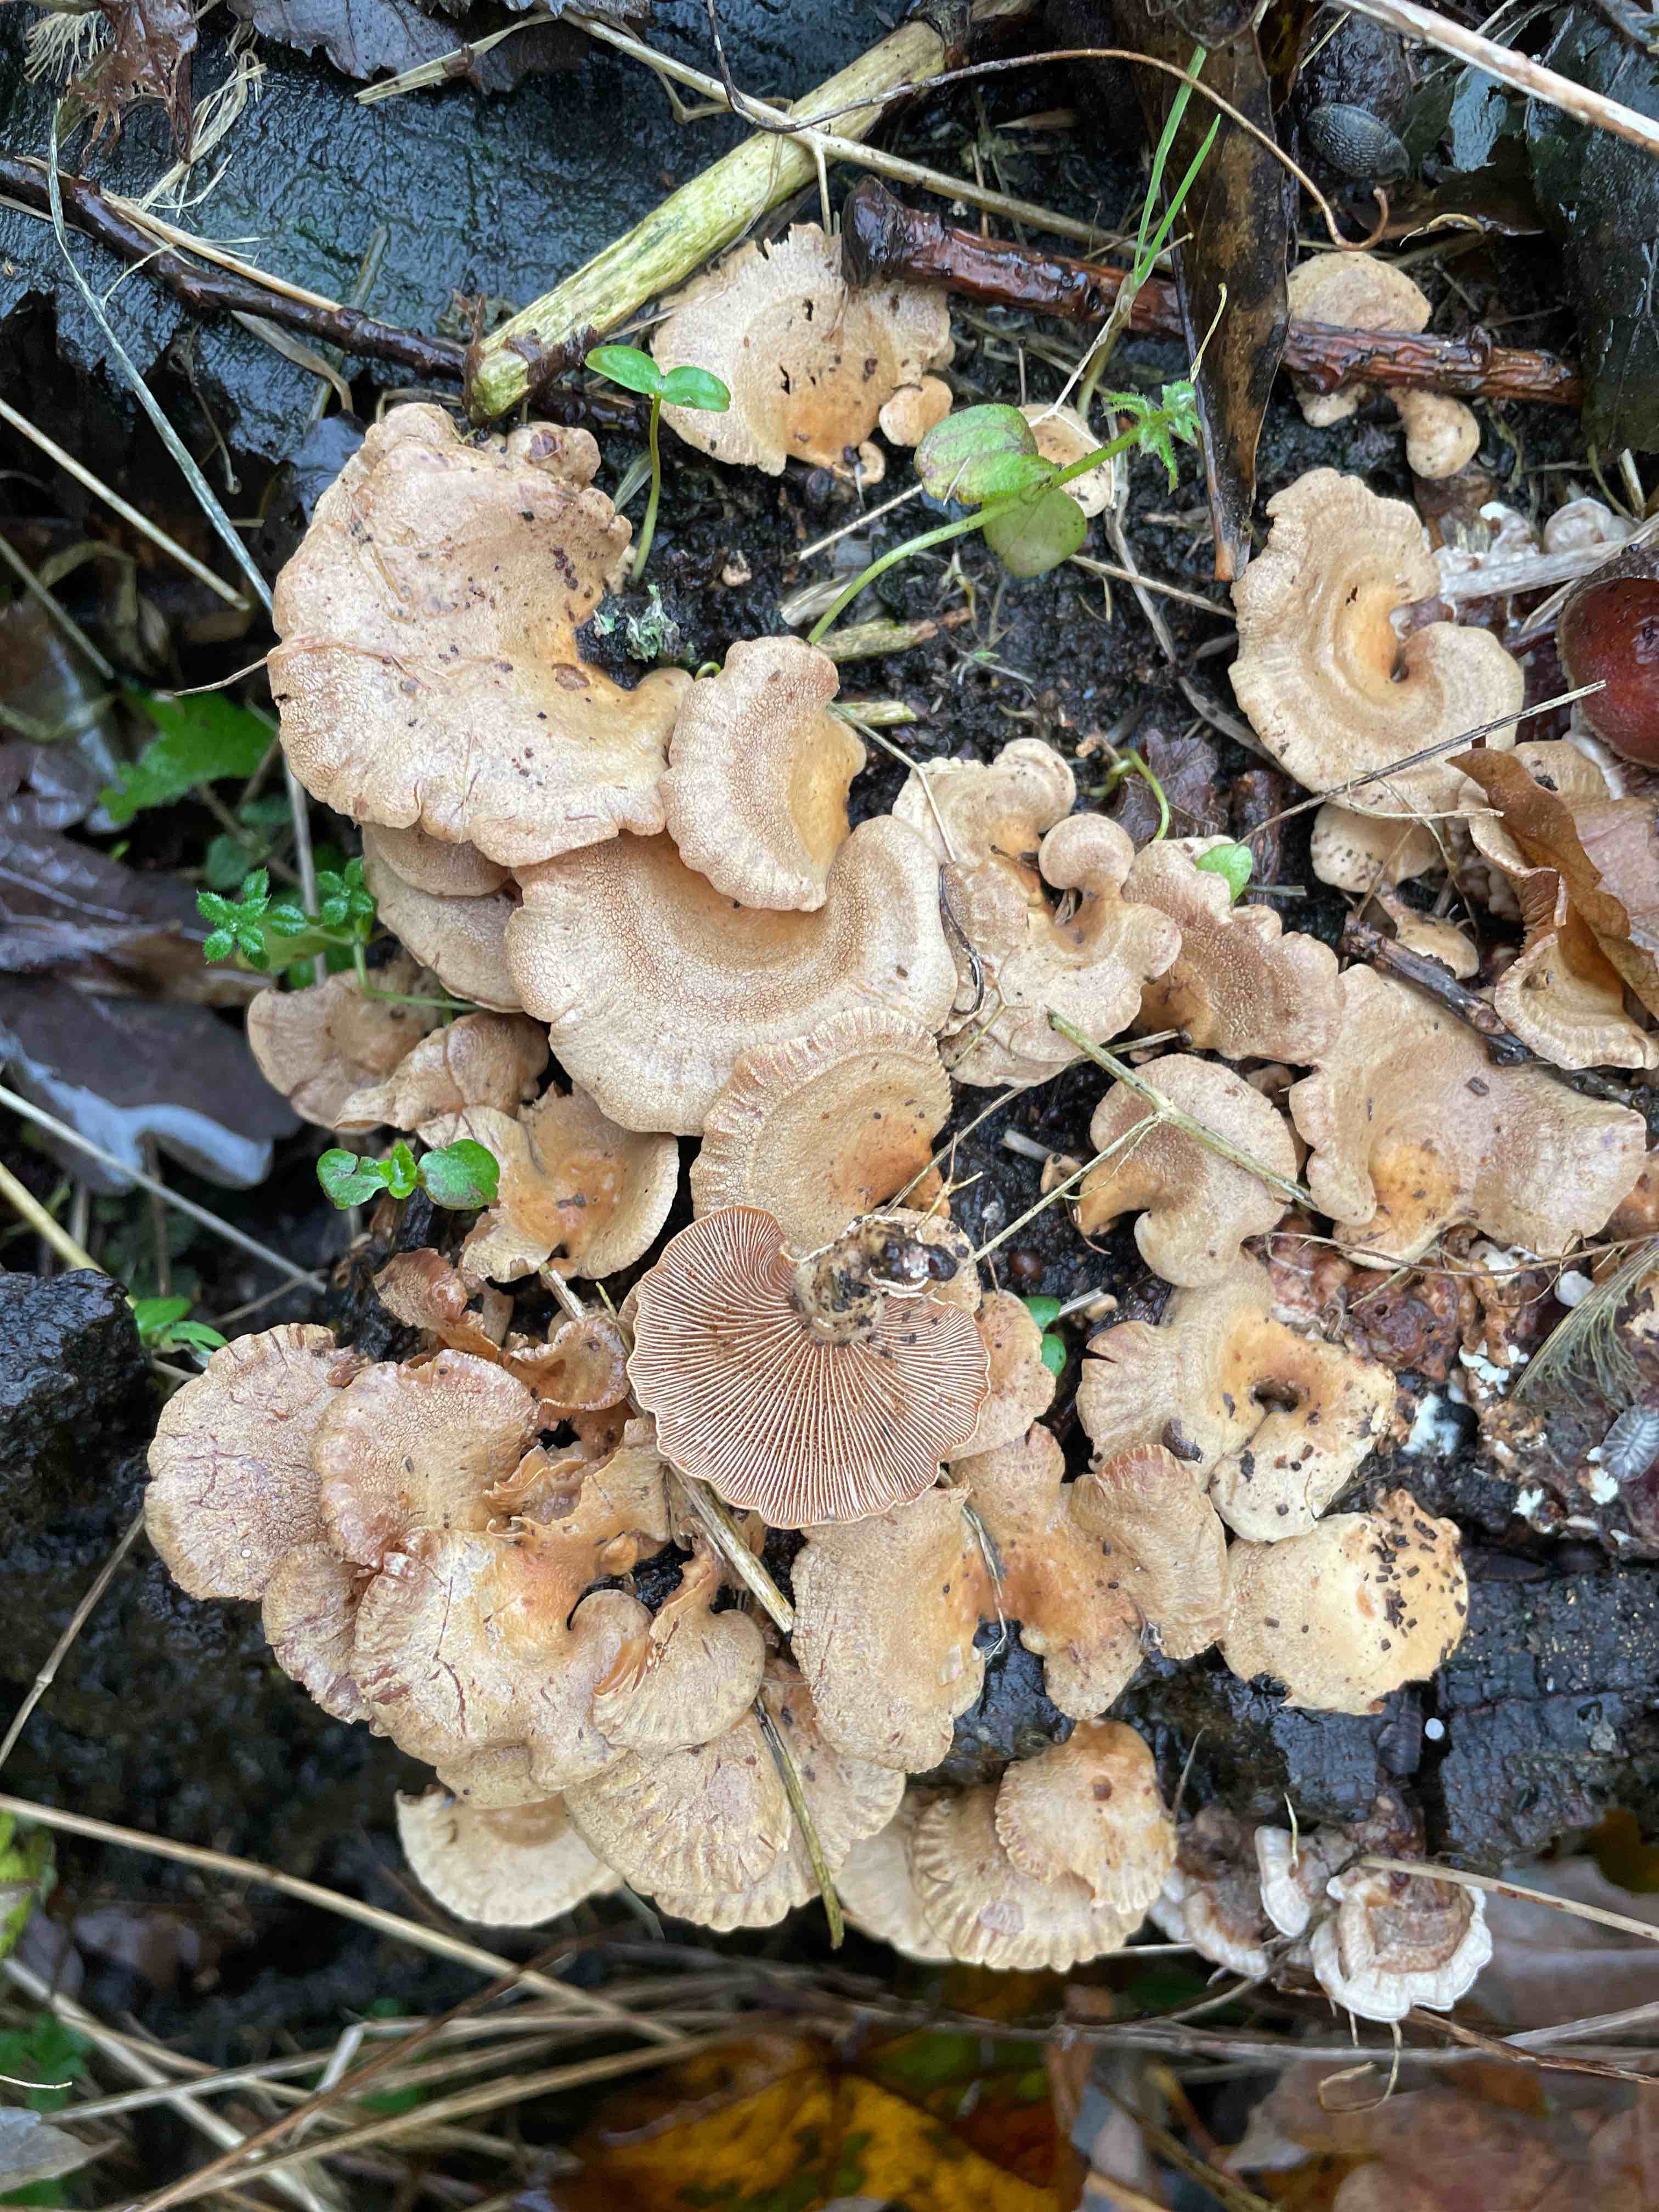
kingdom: Fungi
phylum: Basidiomycota
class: Agaricomycetes
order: Agaricales
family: Mycenaceae
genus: Panellus
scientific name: Panellus stipticus
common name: kliddet epaulethat
